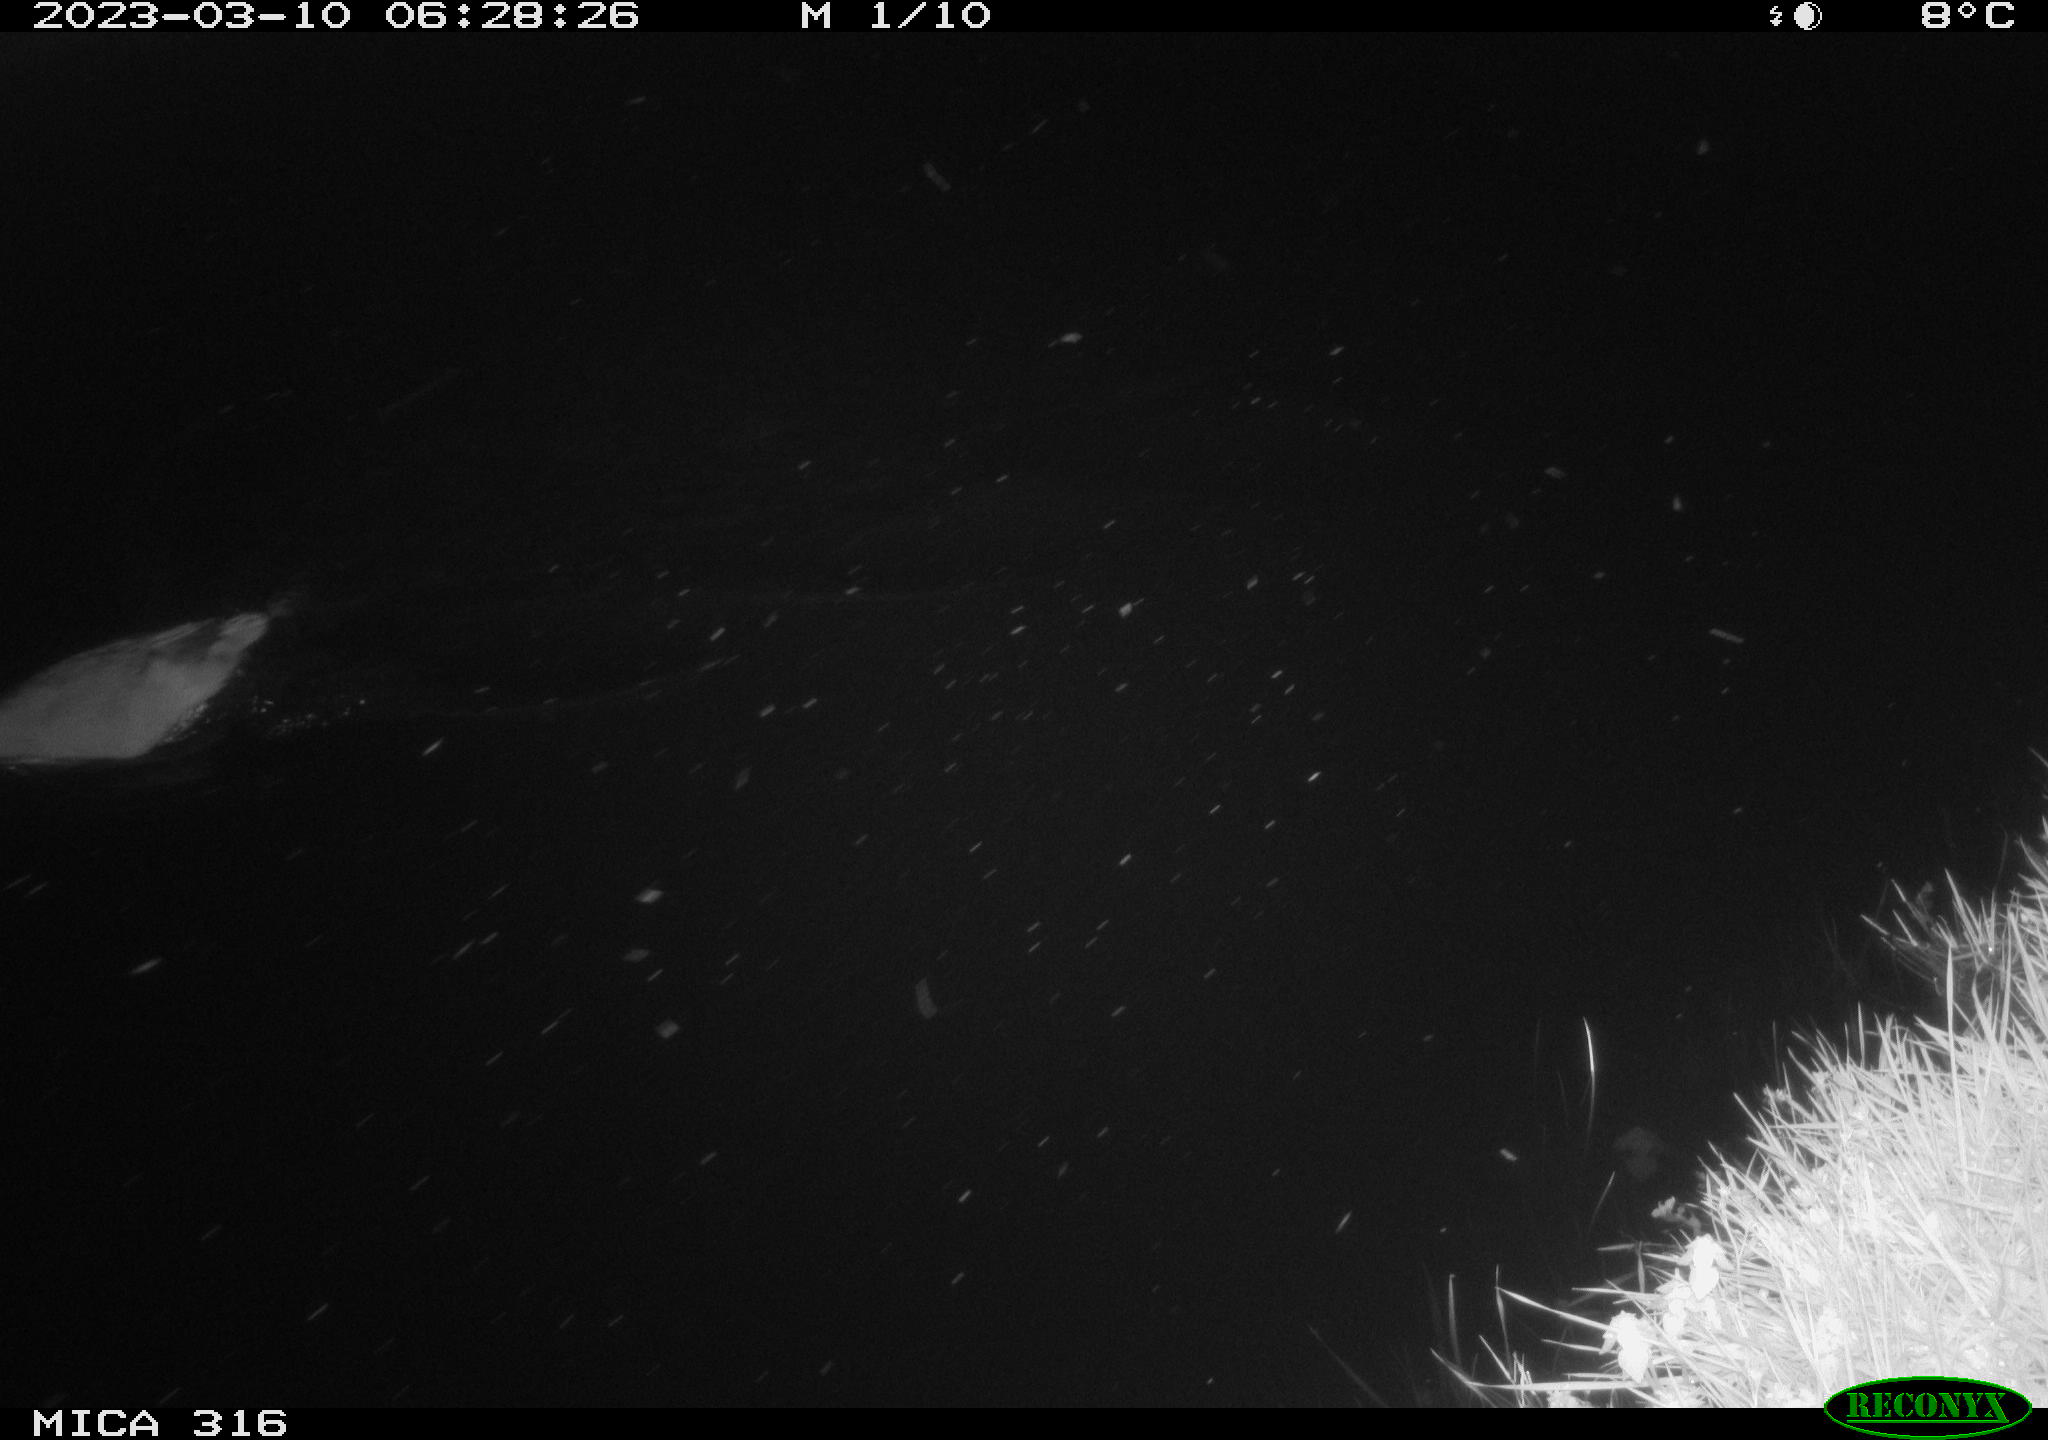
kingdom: Animalia
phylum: Chordata
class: Aves
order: Anseriformes
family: Anatidae
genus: Anas
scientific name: Anas
